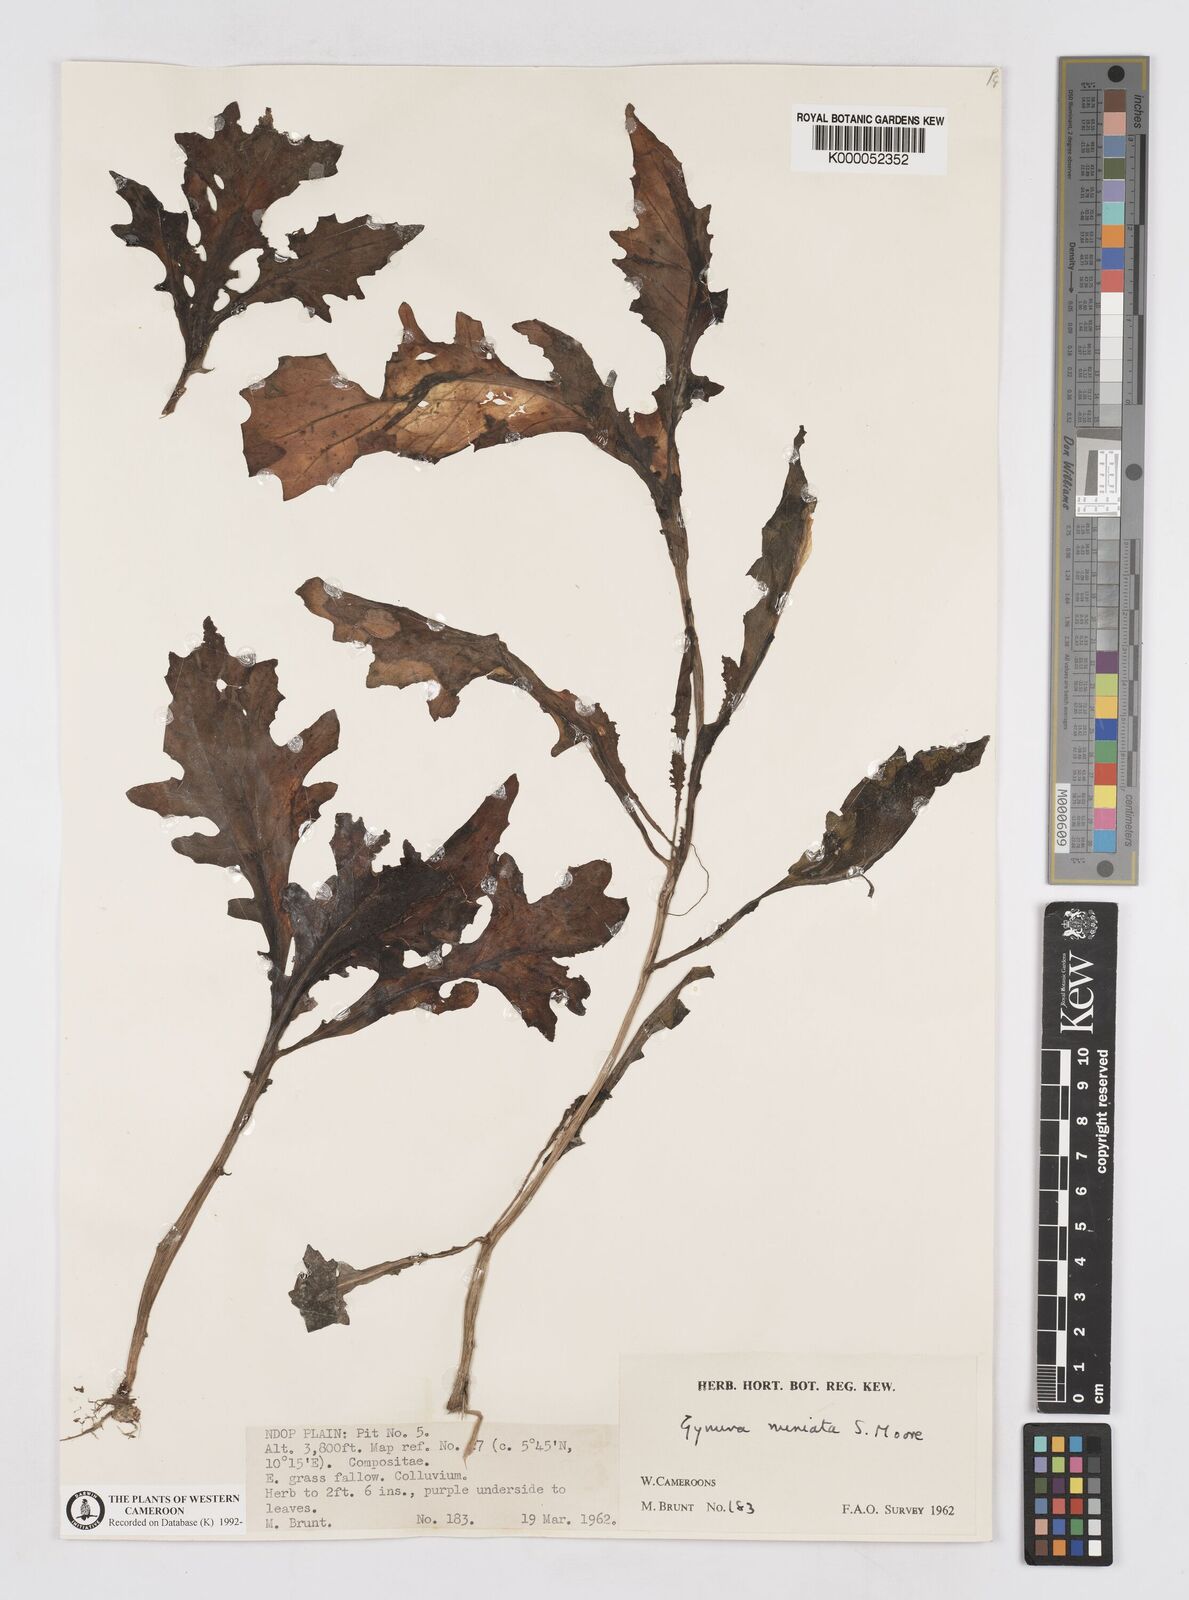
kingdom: Plantae
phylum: Tracheophyta
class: Magnoliopsida
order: Asterales
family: Asteraceae
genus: Gynura
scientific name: Gynura pseudochina
